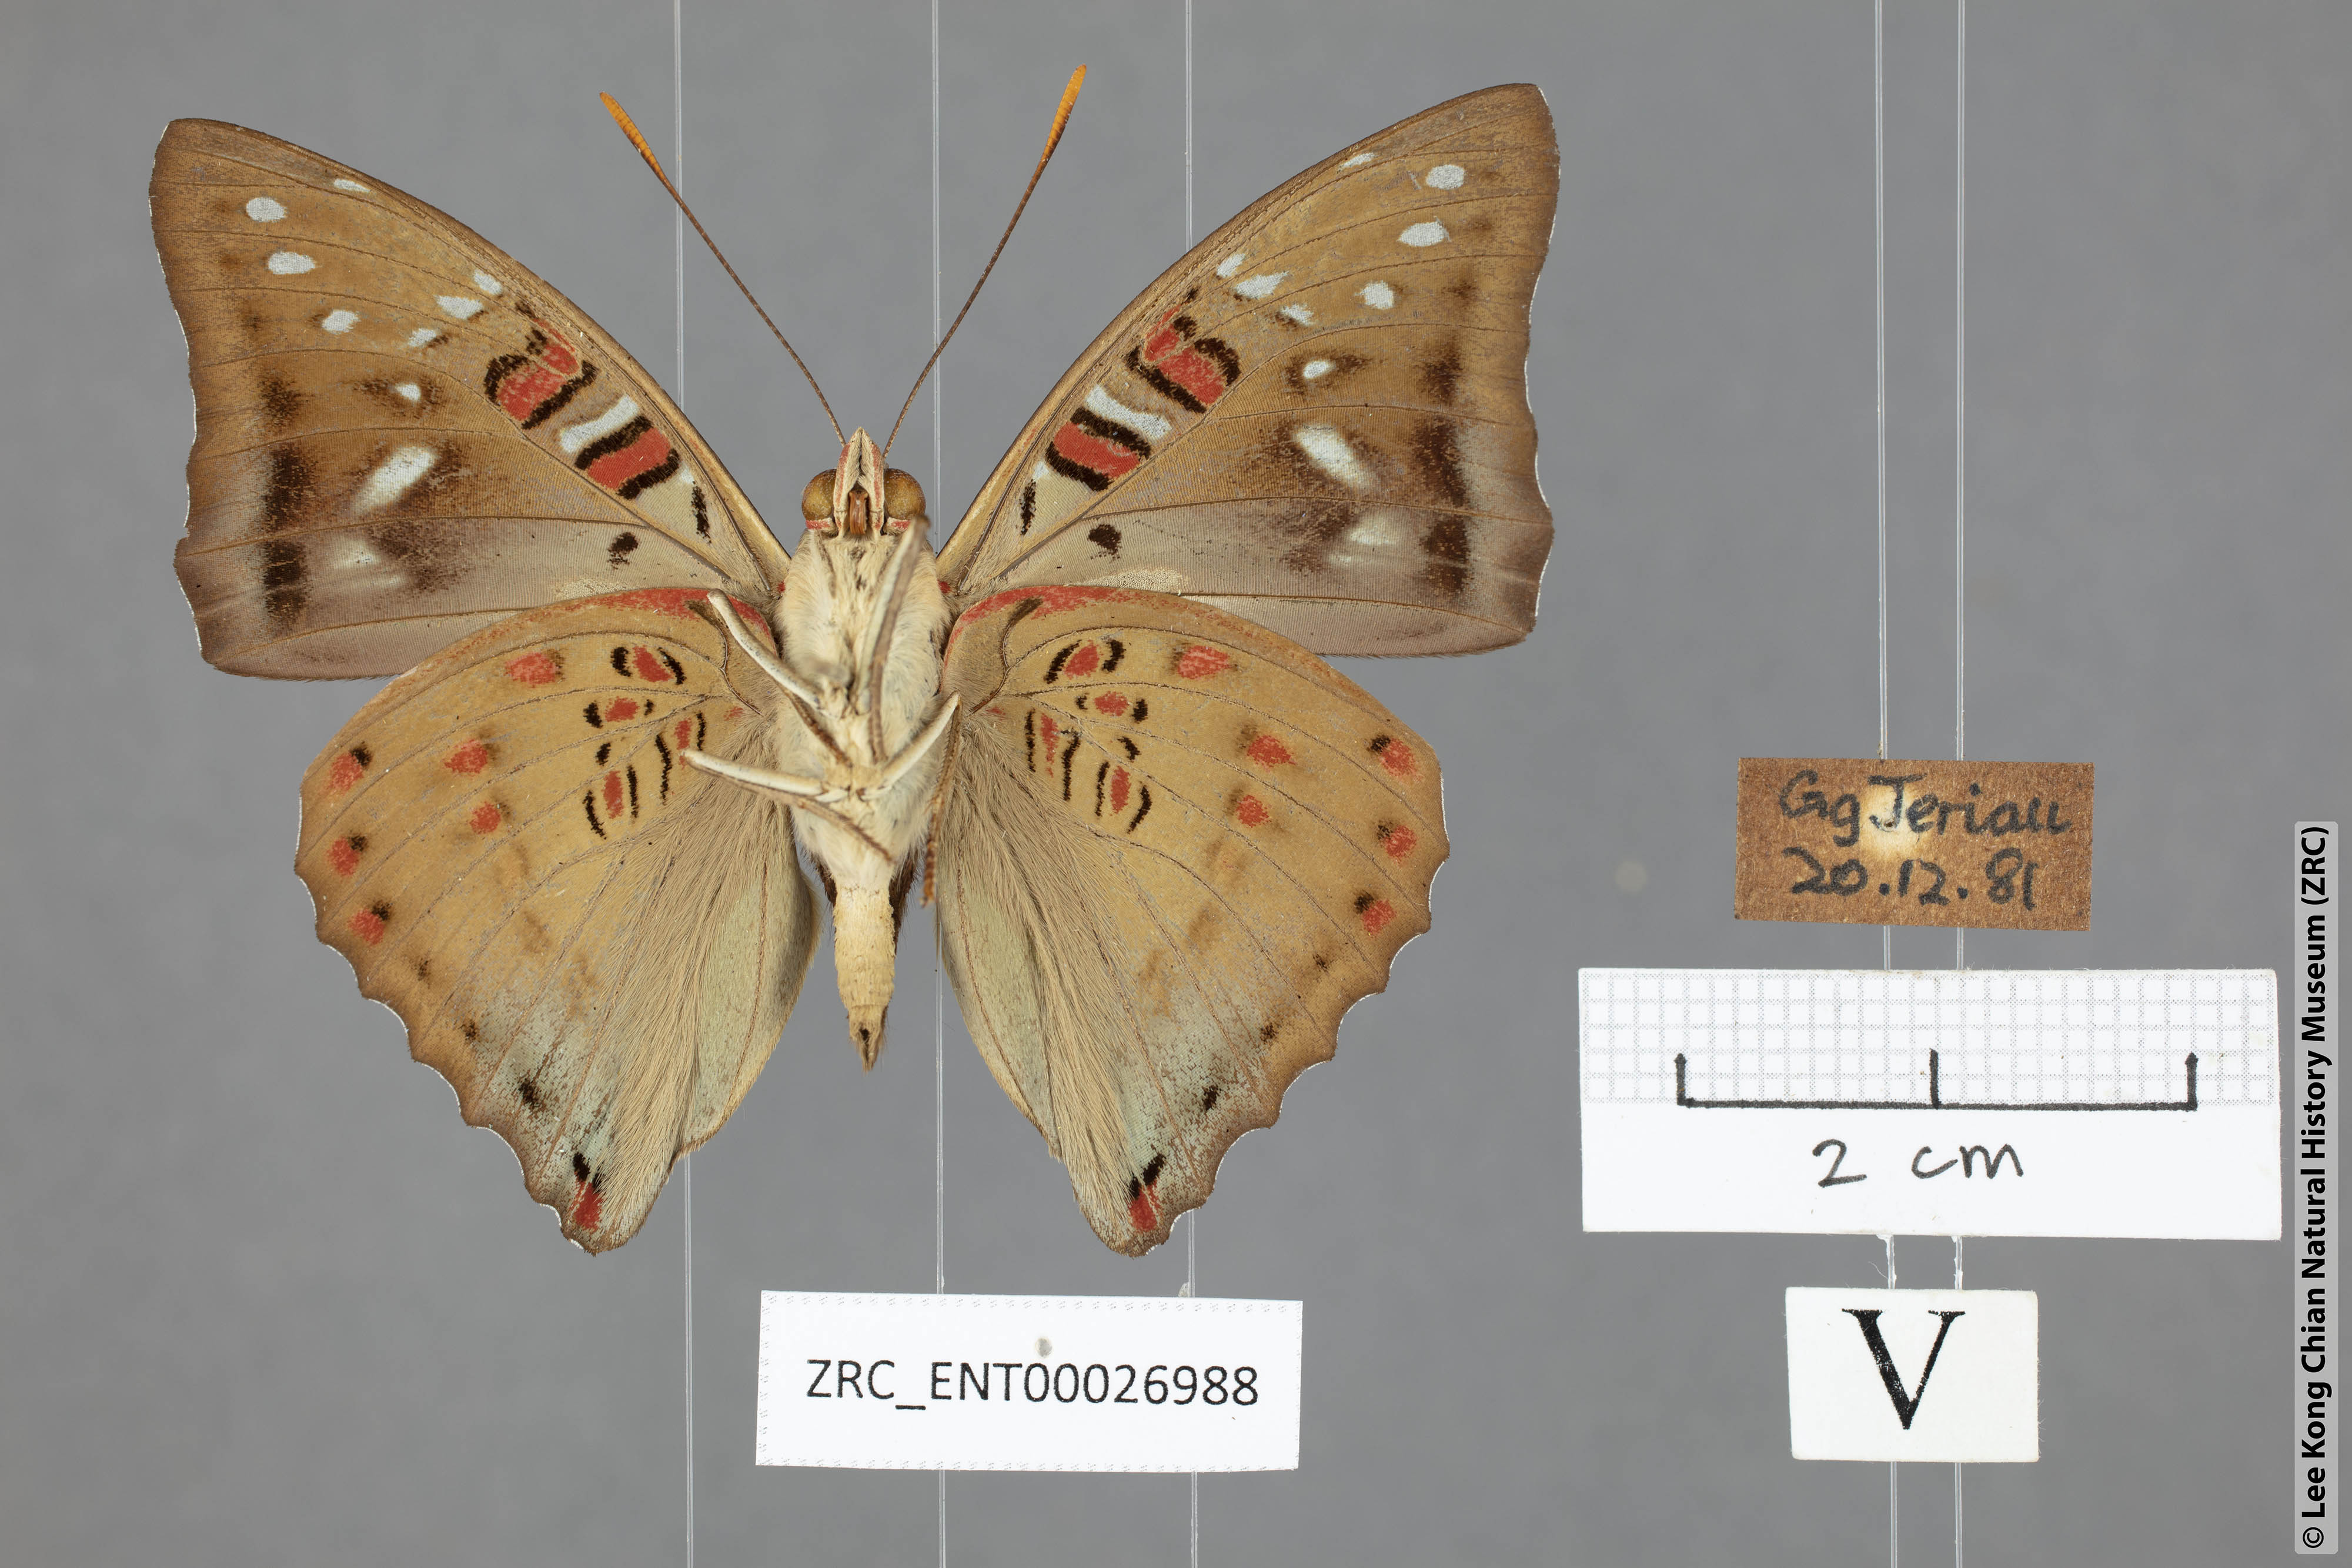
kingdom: Animalia
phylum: Arthropoda
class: Insecta
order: Lepidoptera
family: Nymphalidae
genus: Euthalia
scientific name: Euthalia whiteheadi
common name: Tri-coloured baron
